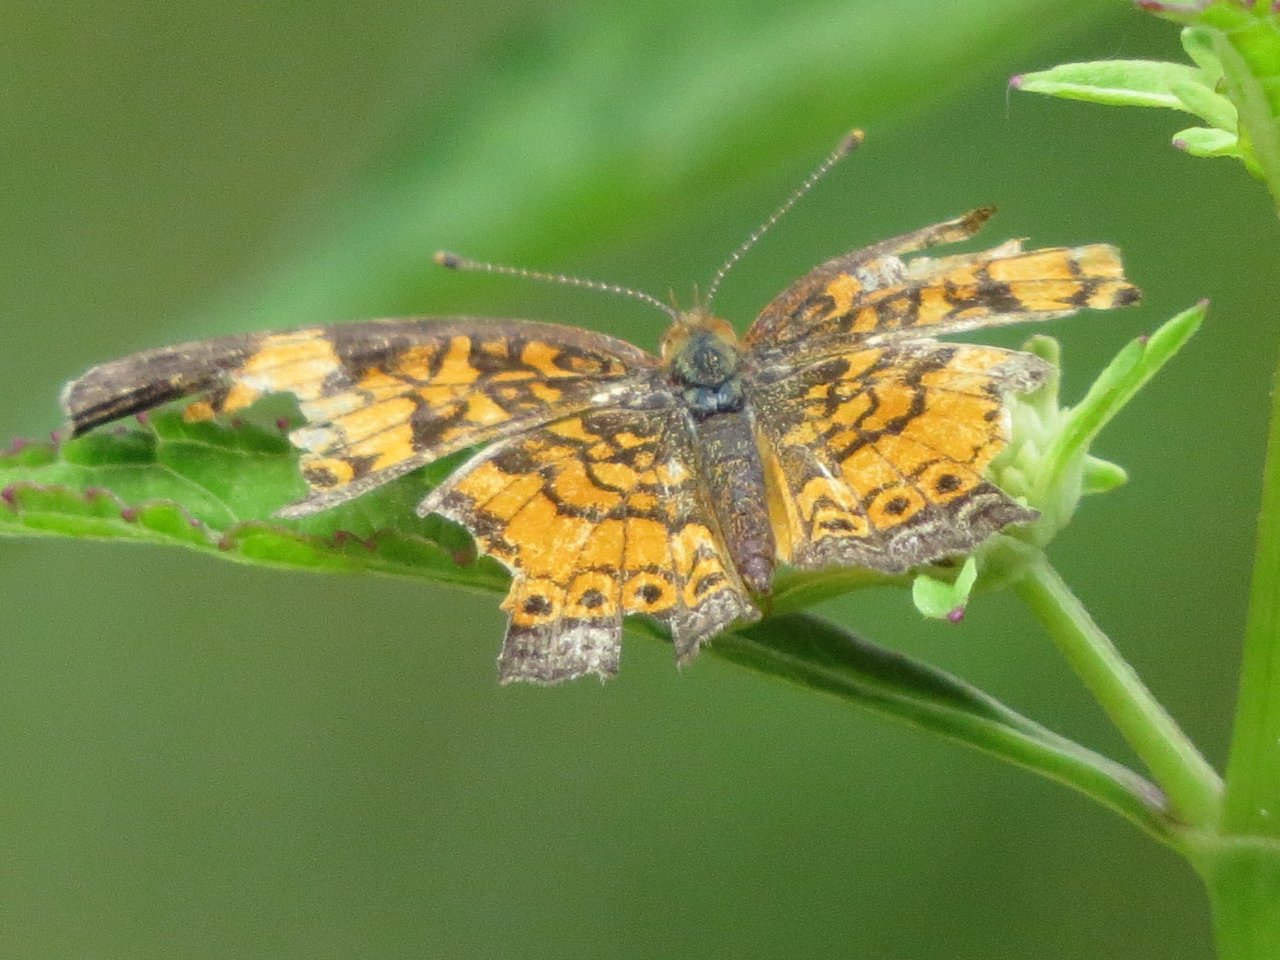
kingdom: Animalia
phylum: Arthropoda
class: Insecta
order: Lepidoptera
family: Nymphalidae
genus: Phyciodes
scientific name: Phyciodes tharos
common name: Pearl Crescent
